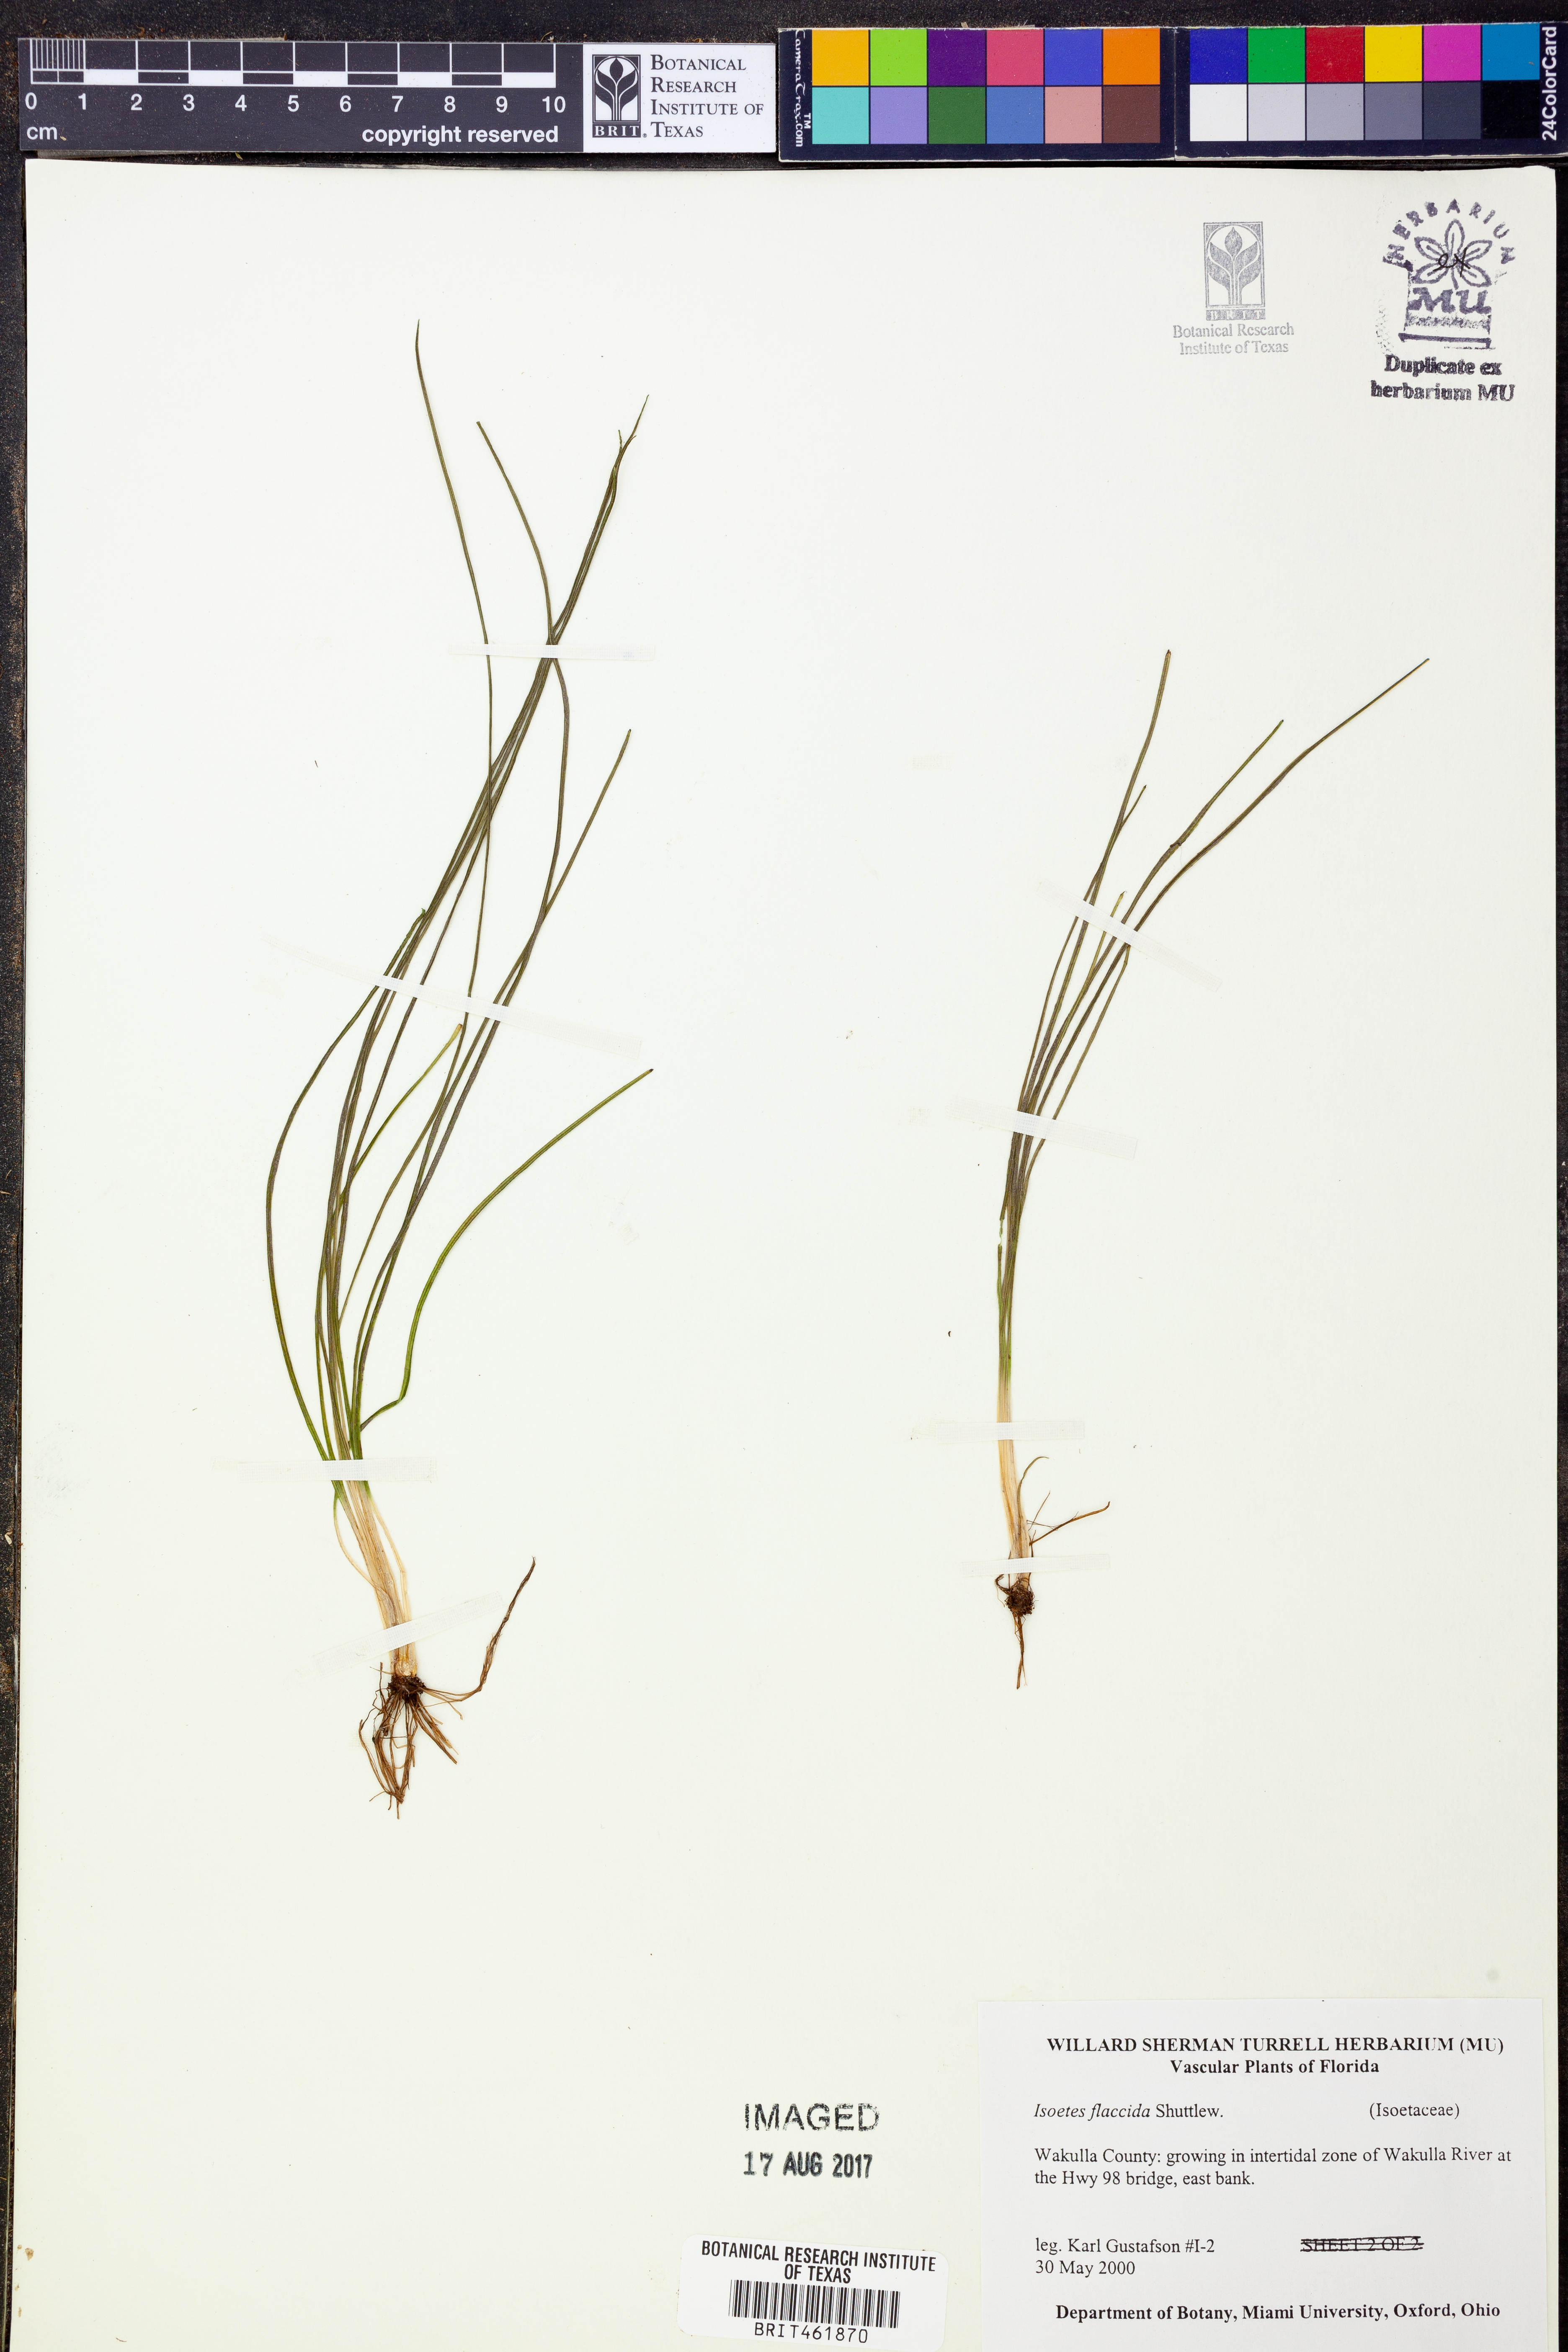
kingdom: Plantae
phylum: Tracheophyta
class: Lycopodiopsida
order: Isoetales
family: Isoetaceae
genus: Isoetes
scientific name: Isoetes flaccida
